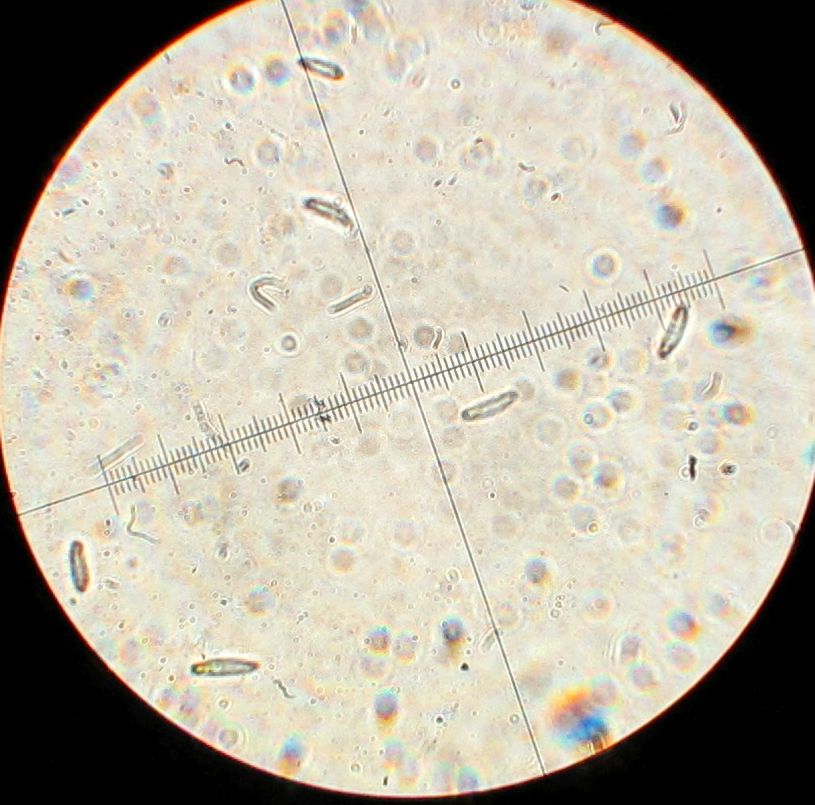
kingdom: Fungi
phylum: Basidiomycota
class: Pucciniomycetes
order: Pucciniales
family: Gymnosporangiaceae
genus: Gymnosporangium
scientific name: Gymnosporangium
